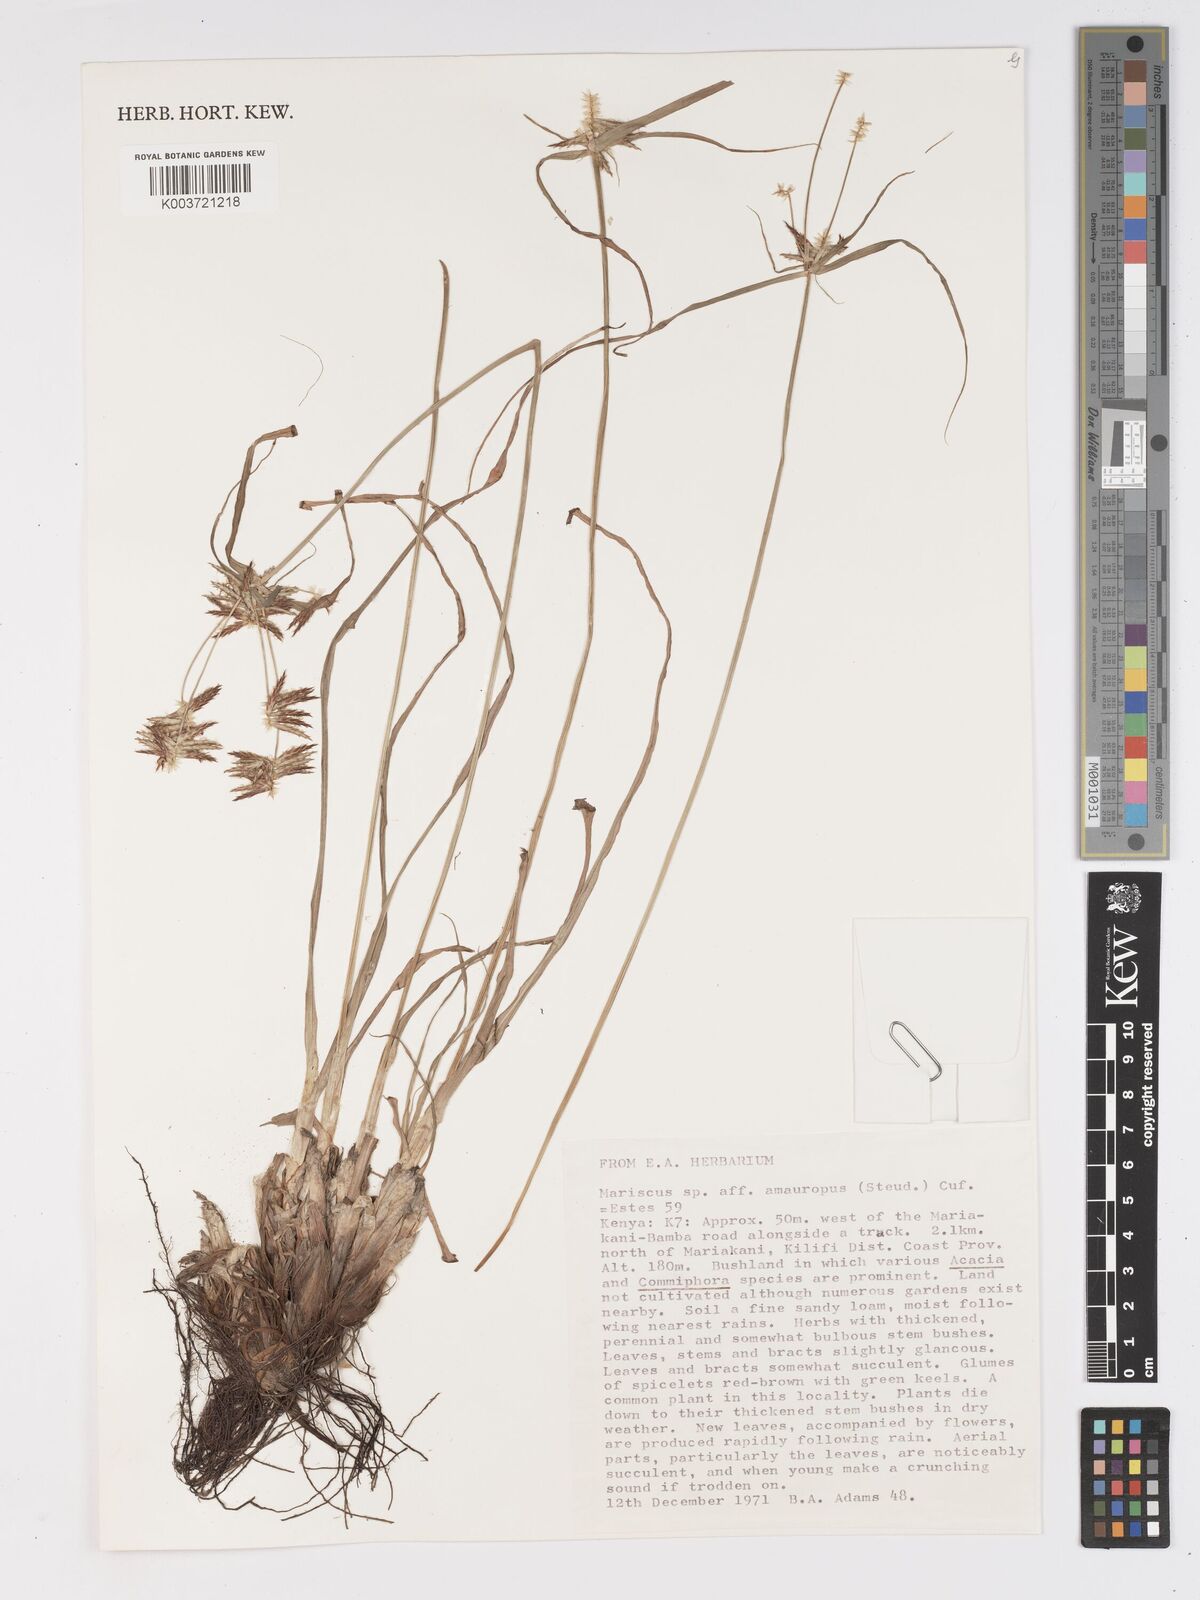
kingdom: Plantae
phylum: Tracheophyta
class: Liliopsida
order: Poales
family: Cyperaceae
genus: Cyperus
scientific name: Cyperus amauropus
